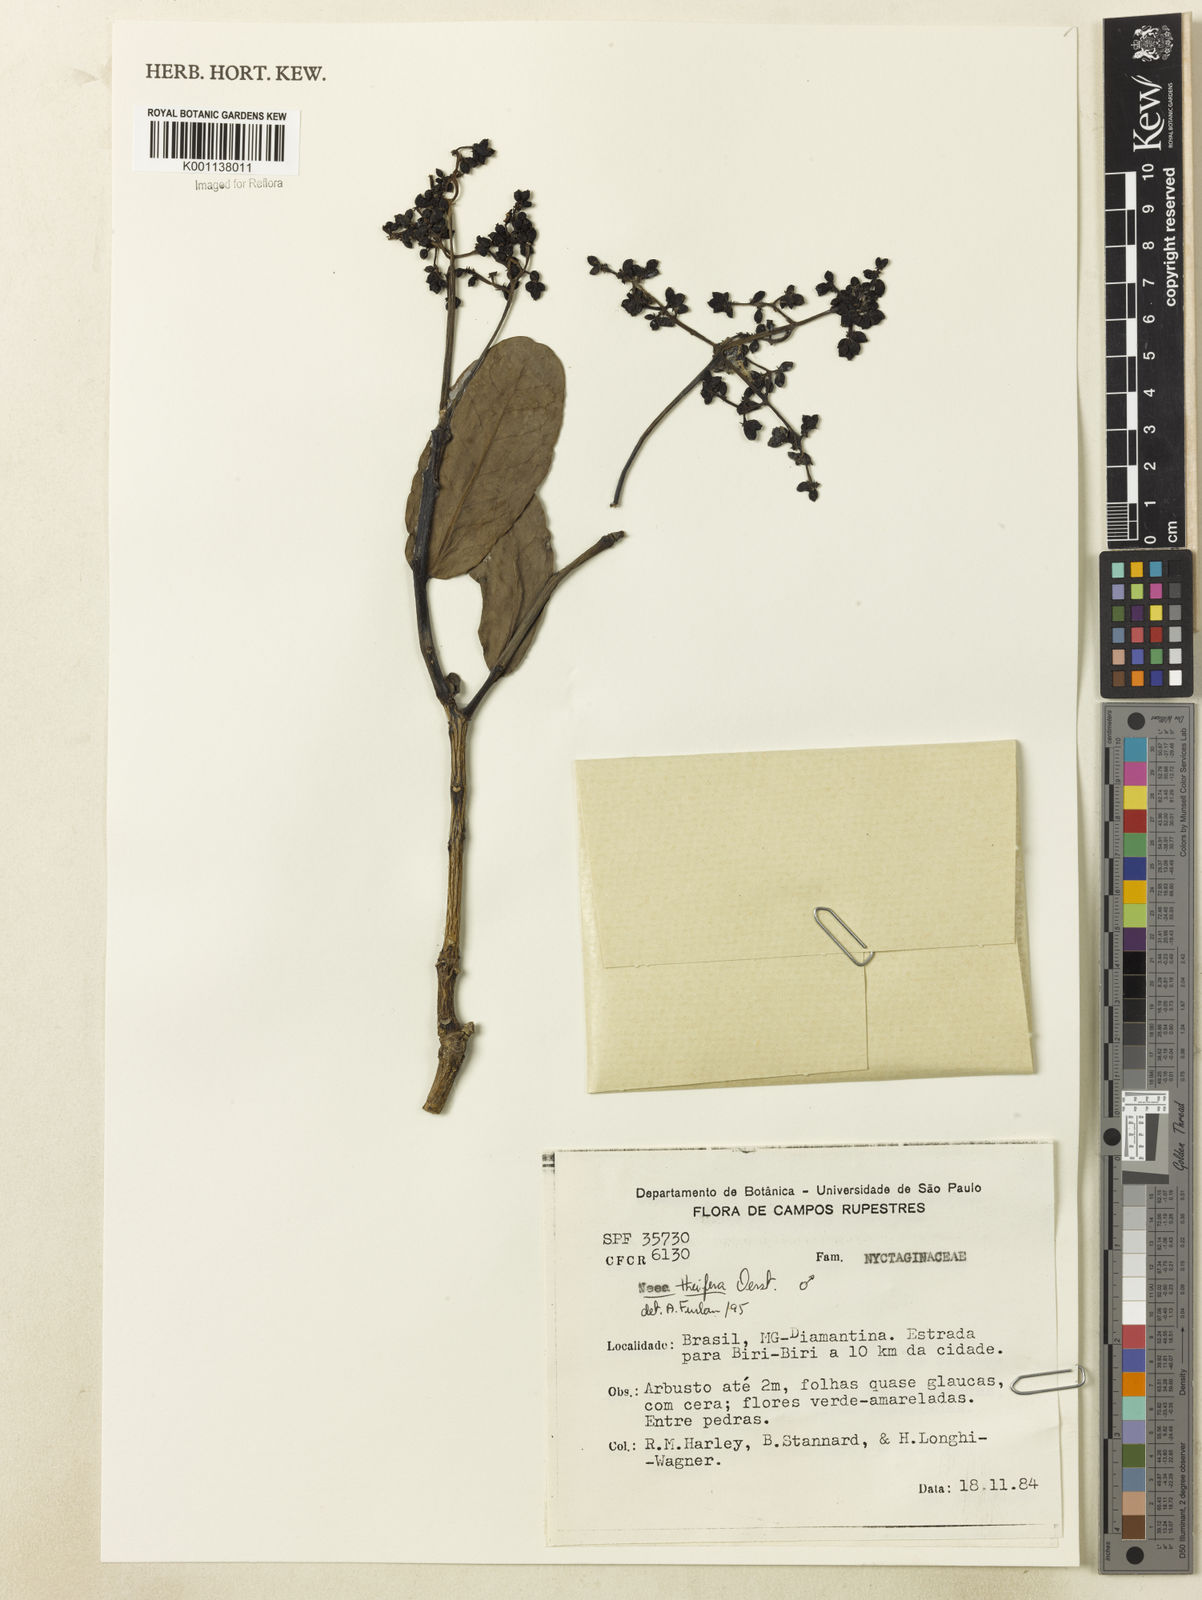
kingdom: Plantae
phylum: Tracheophyta
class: Magnoliopsida
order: Caryophyllales
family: Nyctaginaceae
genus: Neea
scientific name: Neea theifera
